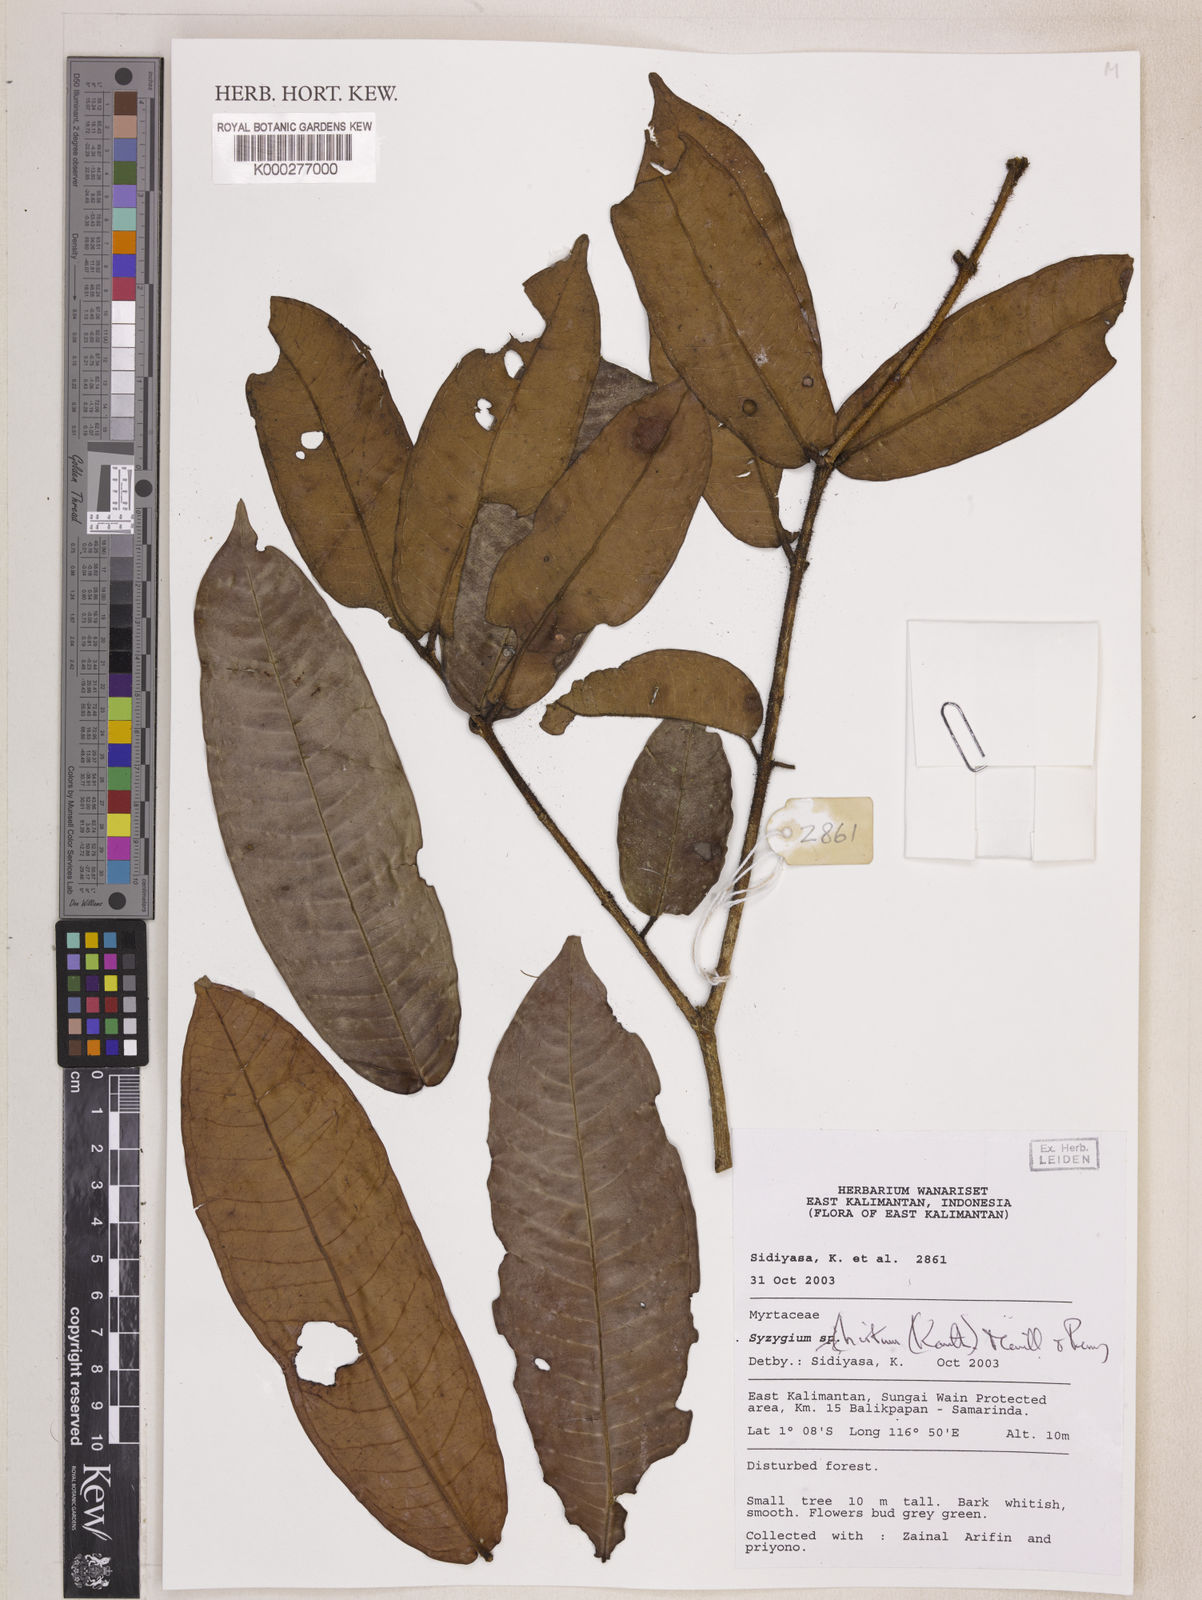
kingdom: Plantae
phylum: Tracheophyta
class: Magnoliopsida
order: Myrtales
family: Myrtaceae
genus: Syzygium
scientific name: Syzygium hirtum
